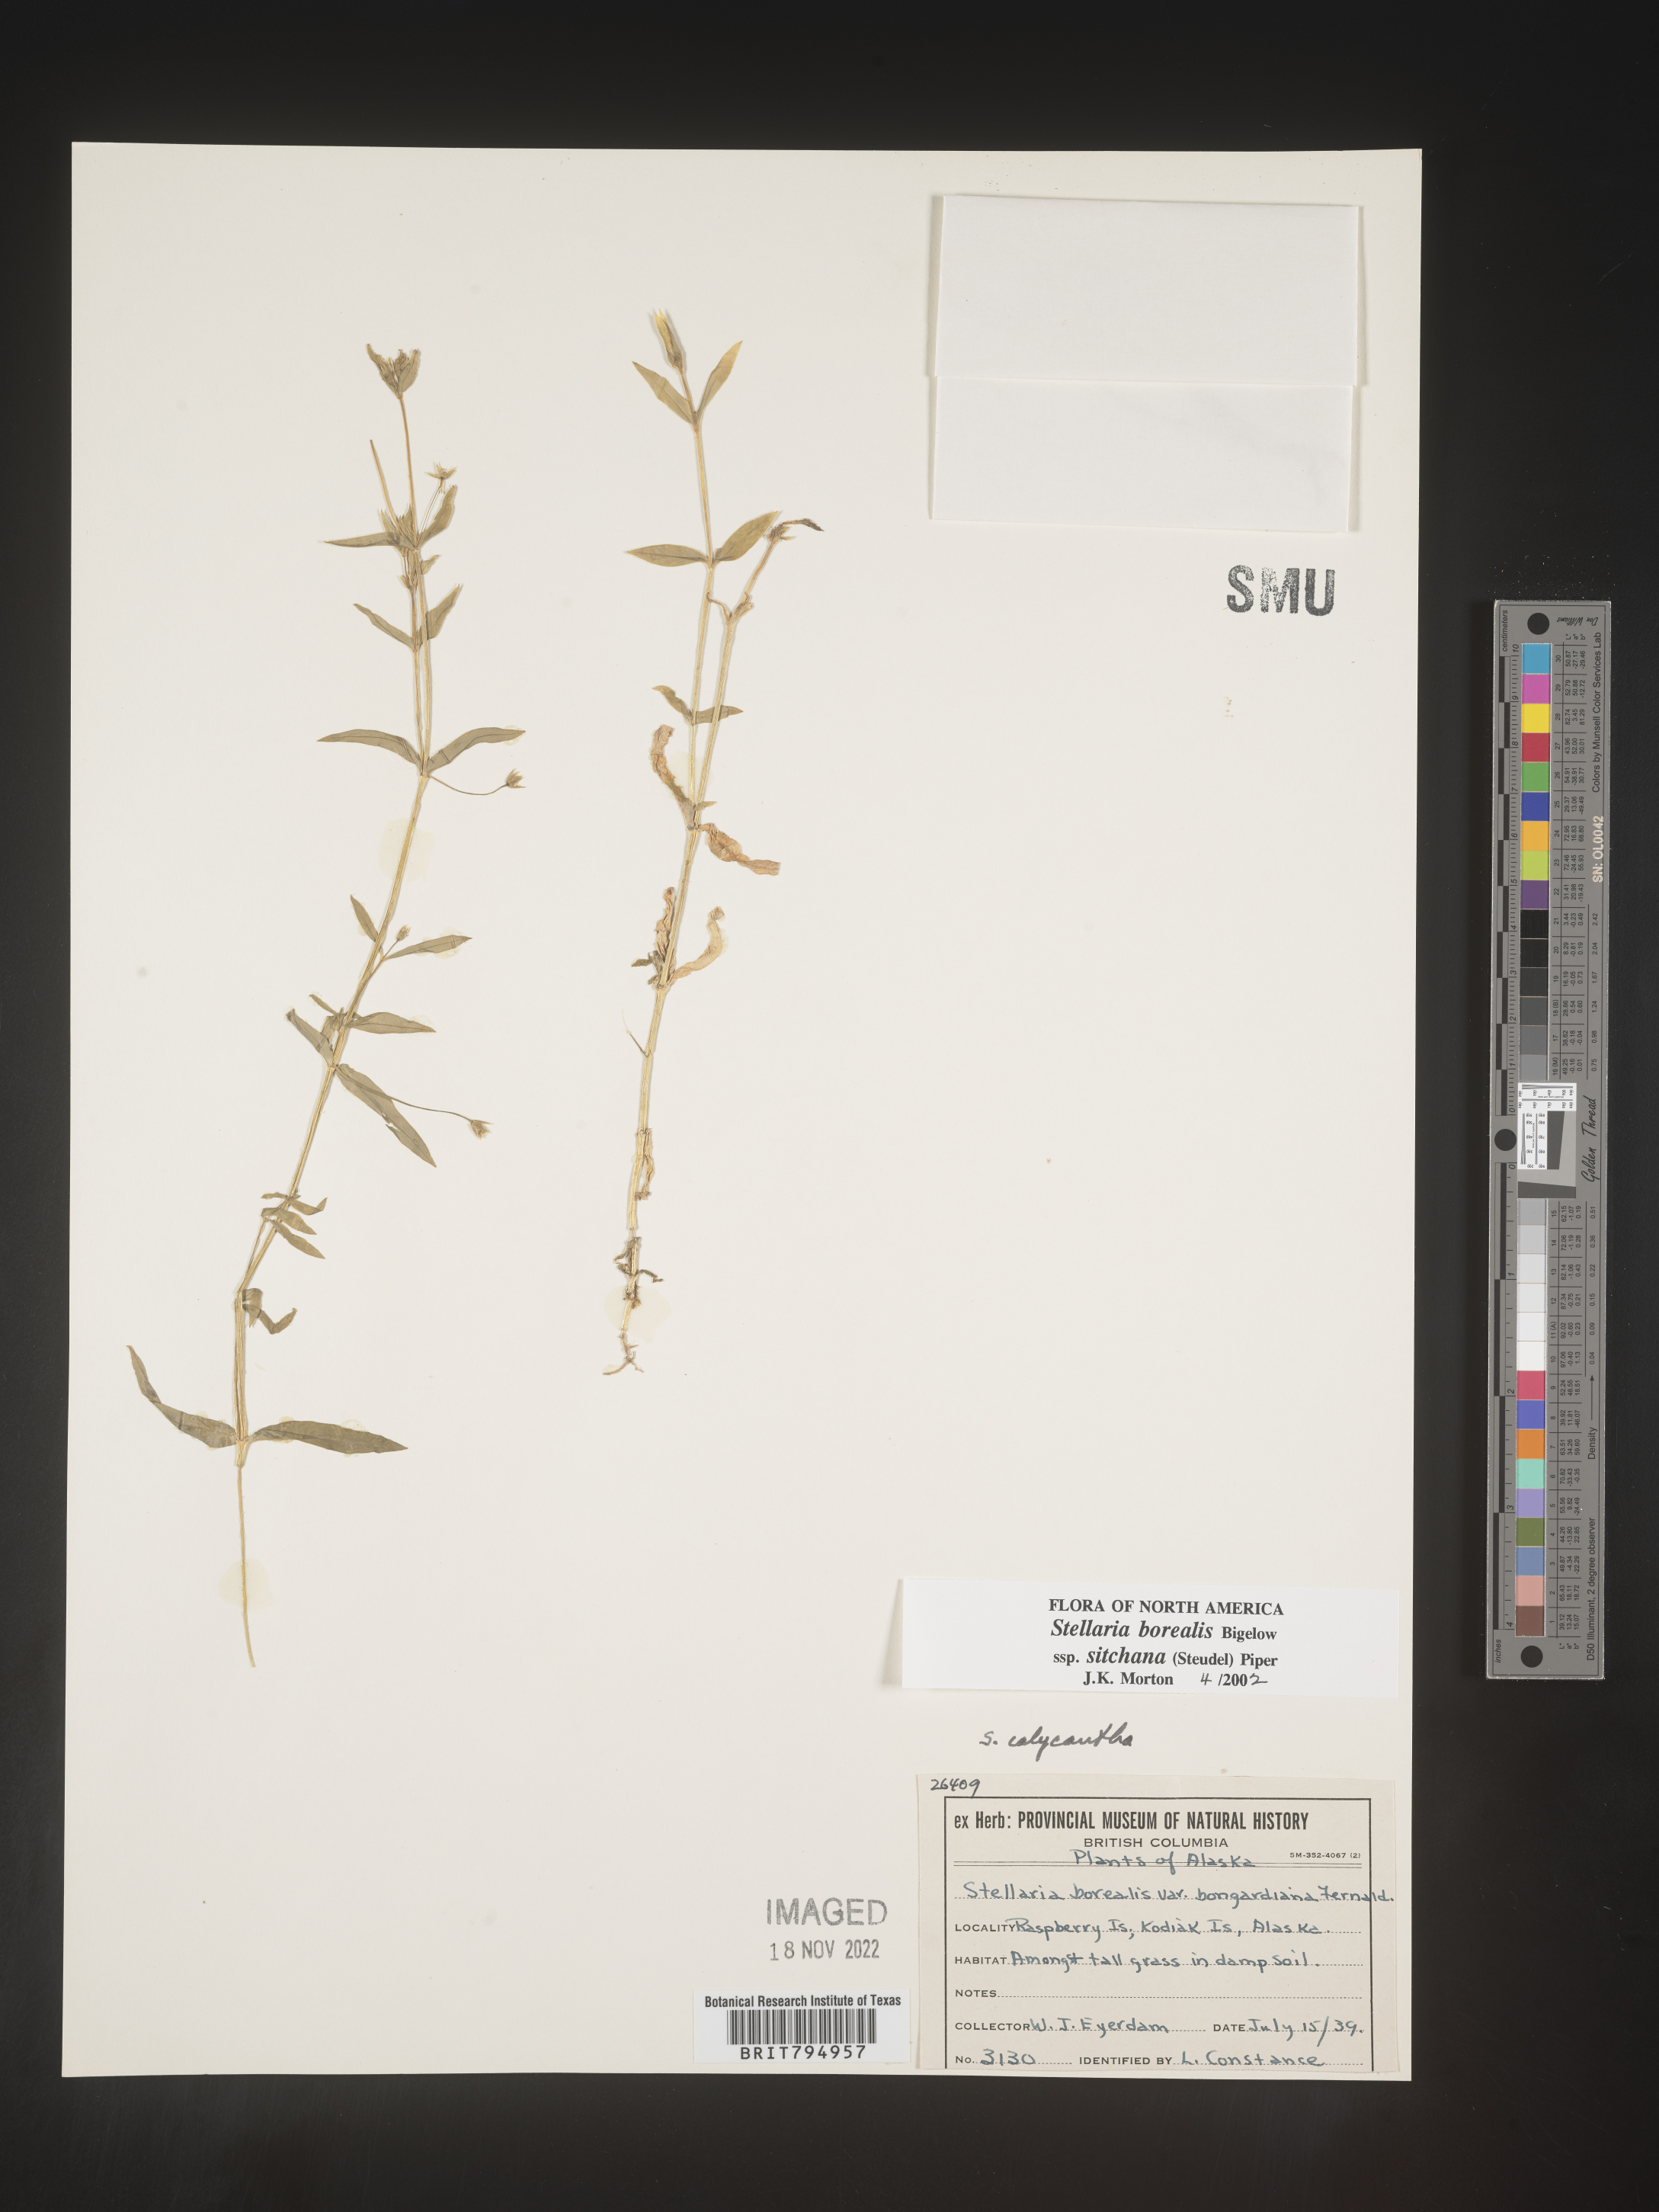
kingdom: Plantae
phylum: Tracheophyta
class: Magnoliopsida
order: Caryophyllales
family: Caryophyllaceae
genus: Stellaria
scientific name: Stellaria sitchana
